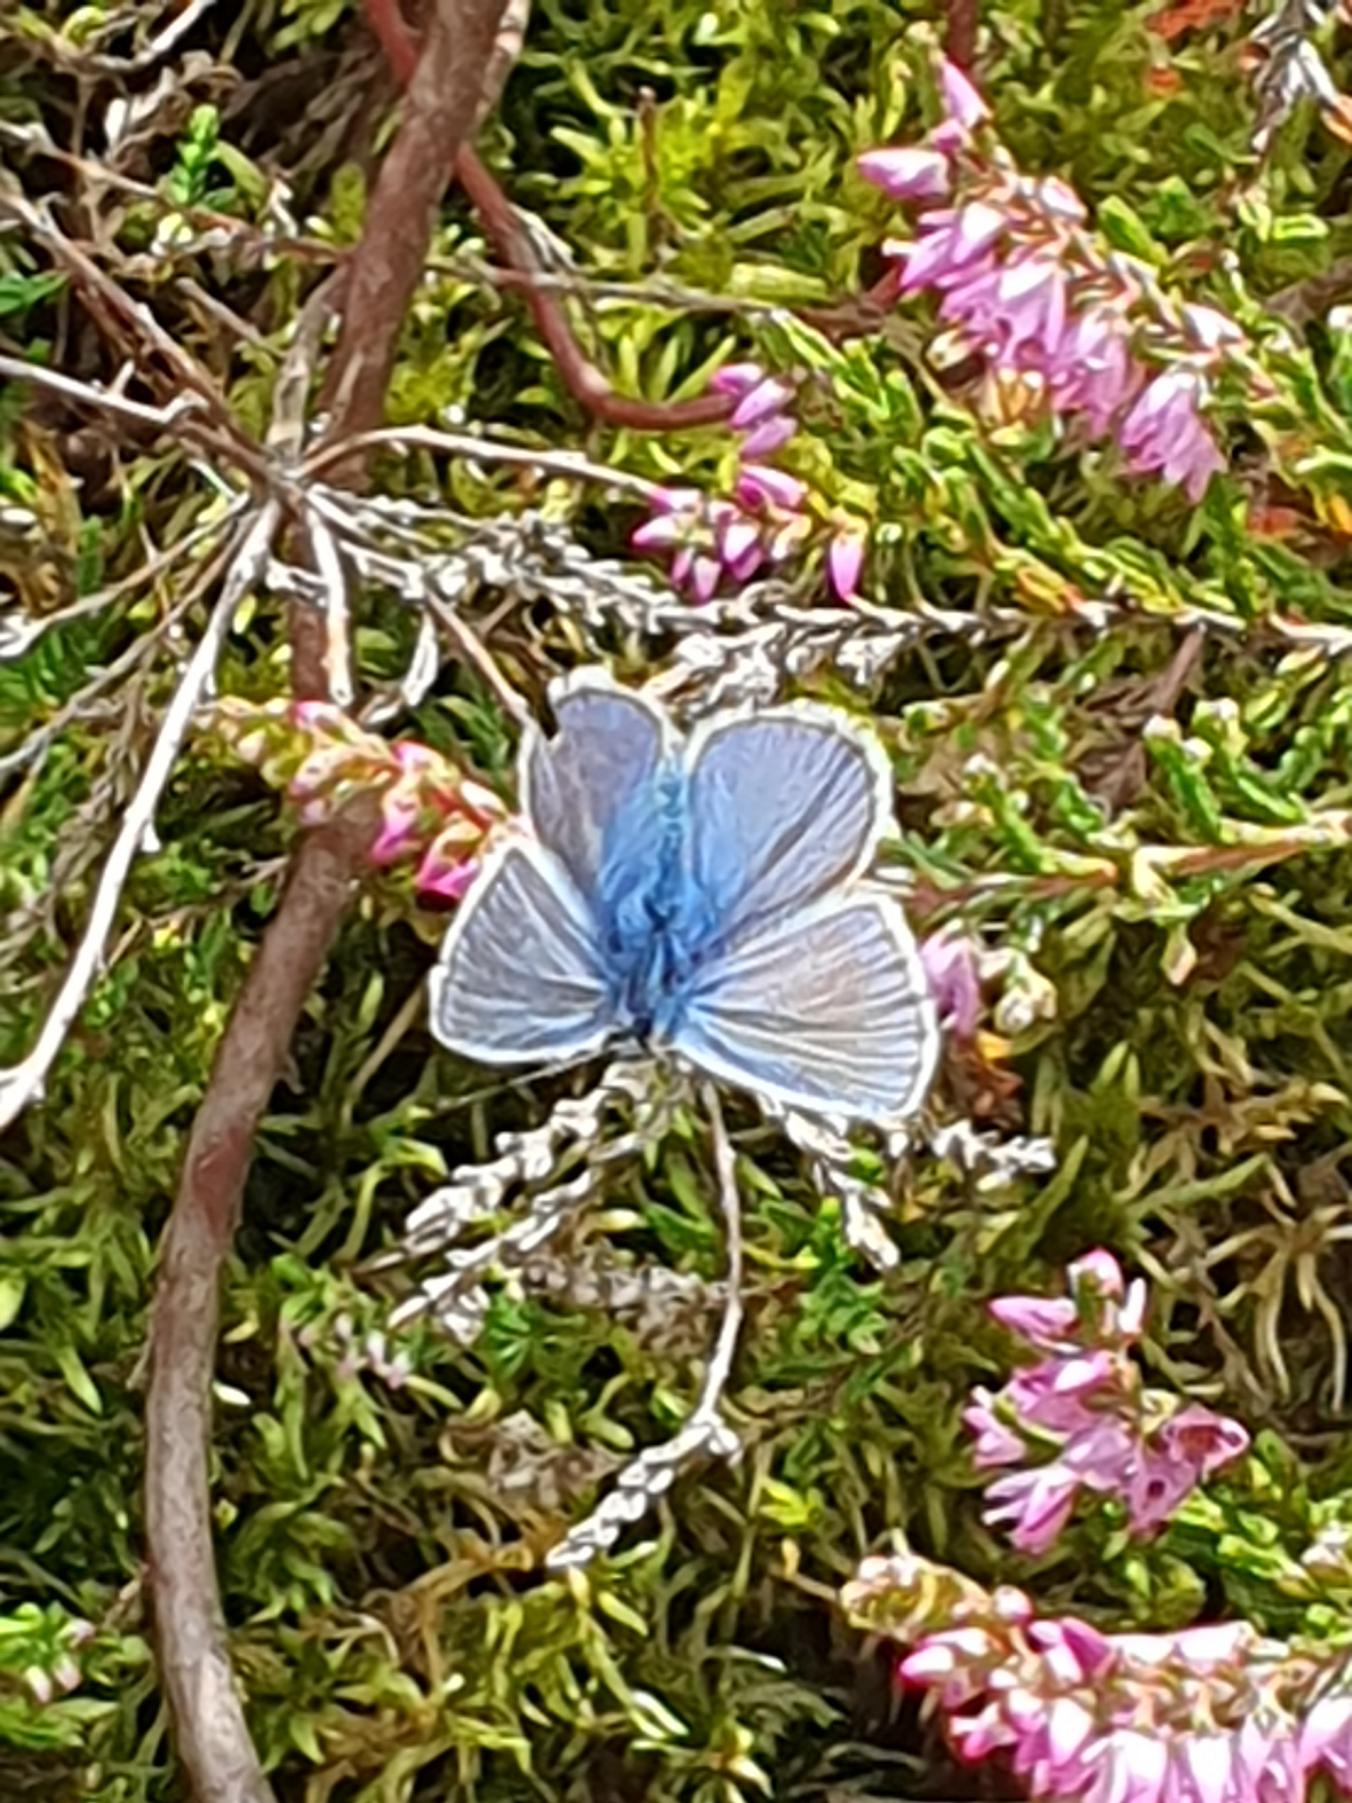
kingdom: Animalia
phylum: Arthropoda
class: Insecta
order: Lepidoptera
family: Lycaenidae
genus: Polyommatus
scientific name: Polyommatus icarus
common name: Almindelig blåfugl
